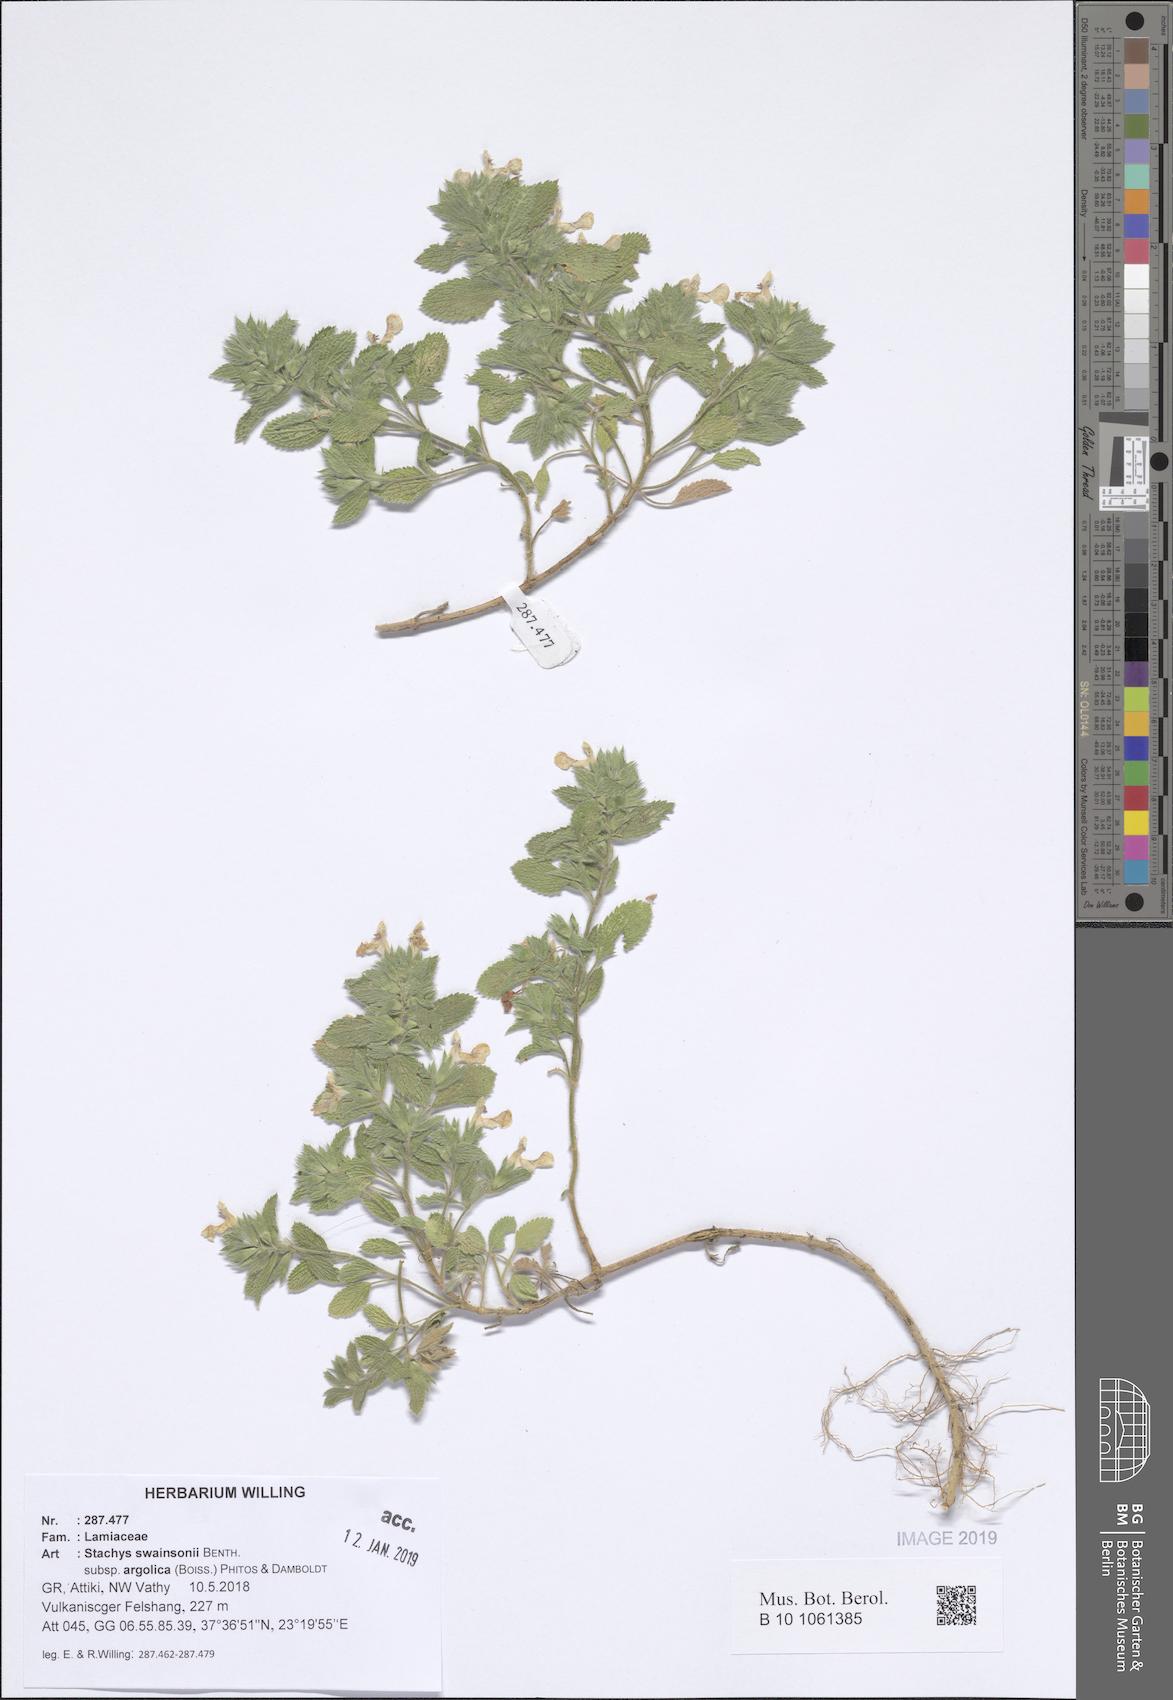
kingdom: Plantae
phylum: Tracheophyta
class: Magnoliopsida
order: Lamiales
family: Lamiaceae
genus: Stachys
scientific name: Stachys swainsonii
